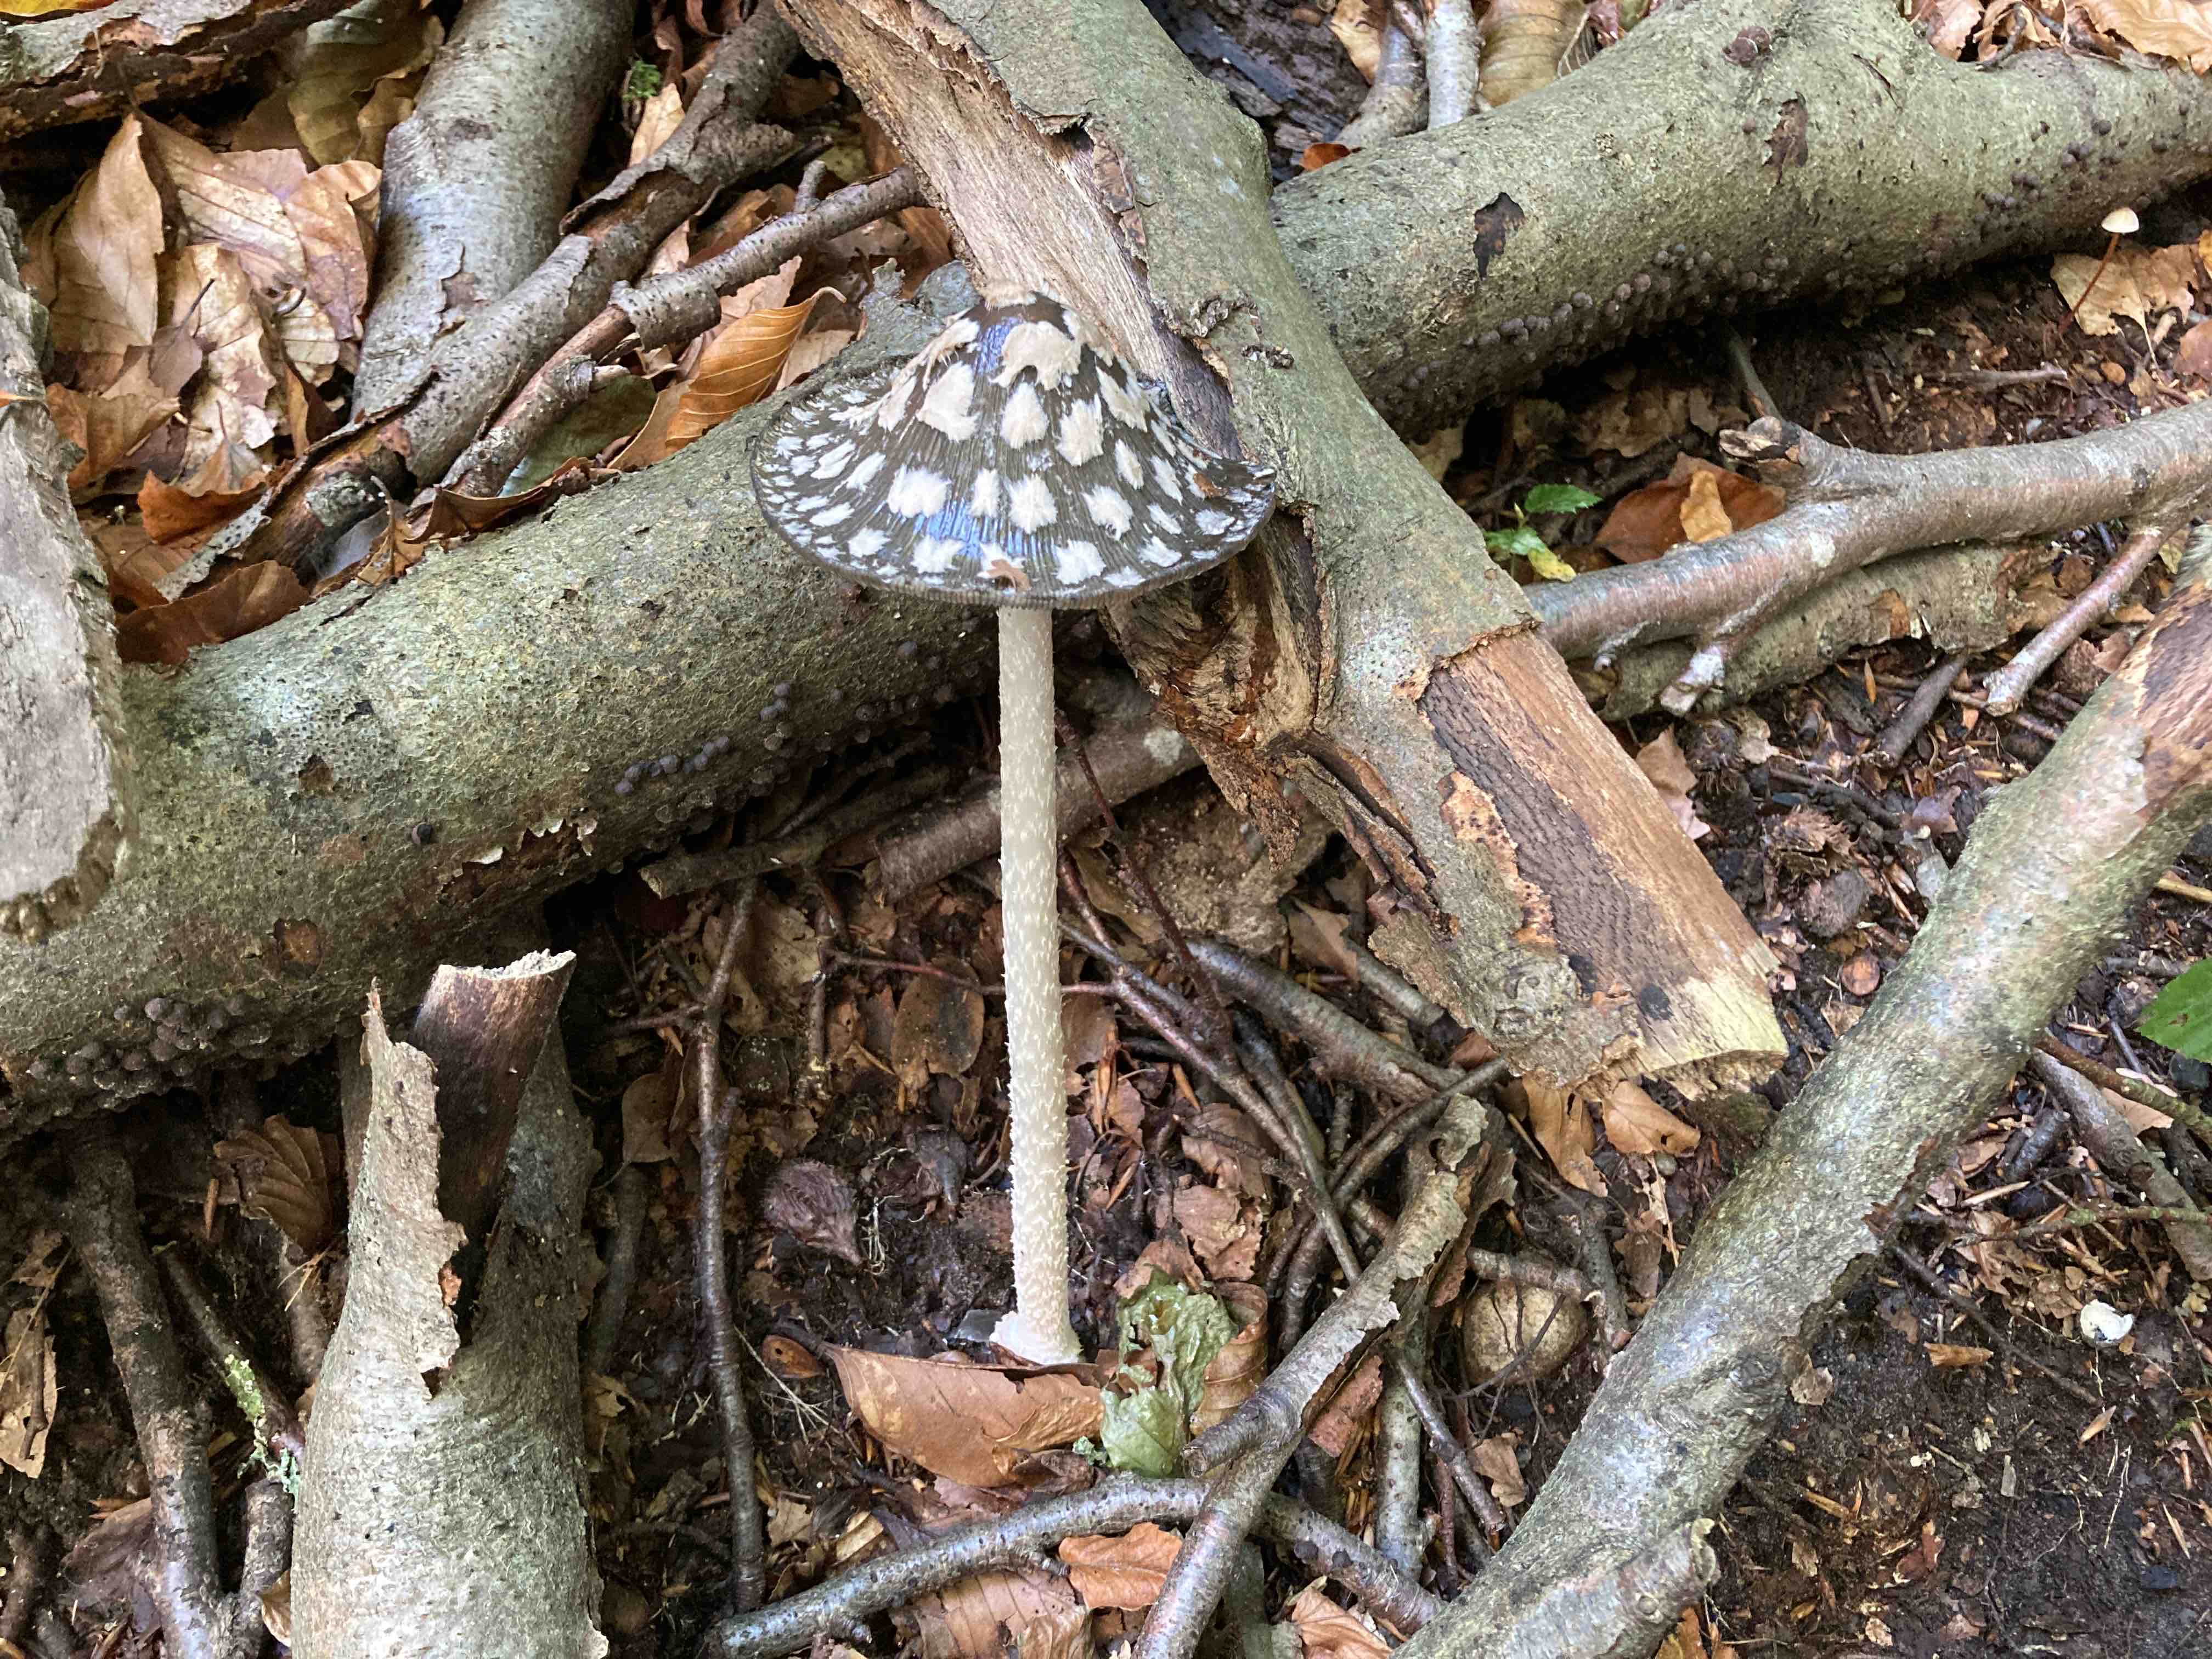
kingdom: Fungi
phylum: Basidiomycota
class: Agaricomycetes
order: Agaricales
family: Psathyrellaceae
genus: Coprinopsis
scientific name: Coprinopsis picacea
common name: skade-blækhat
